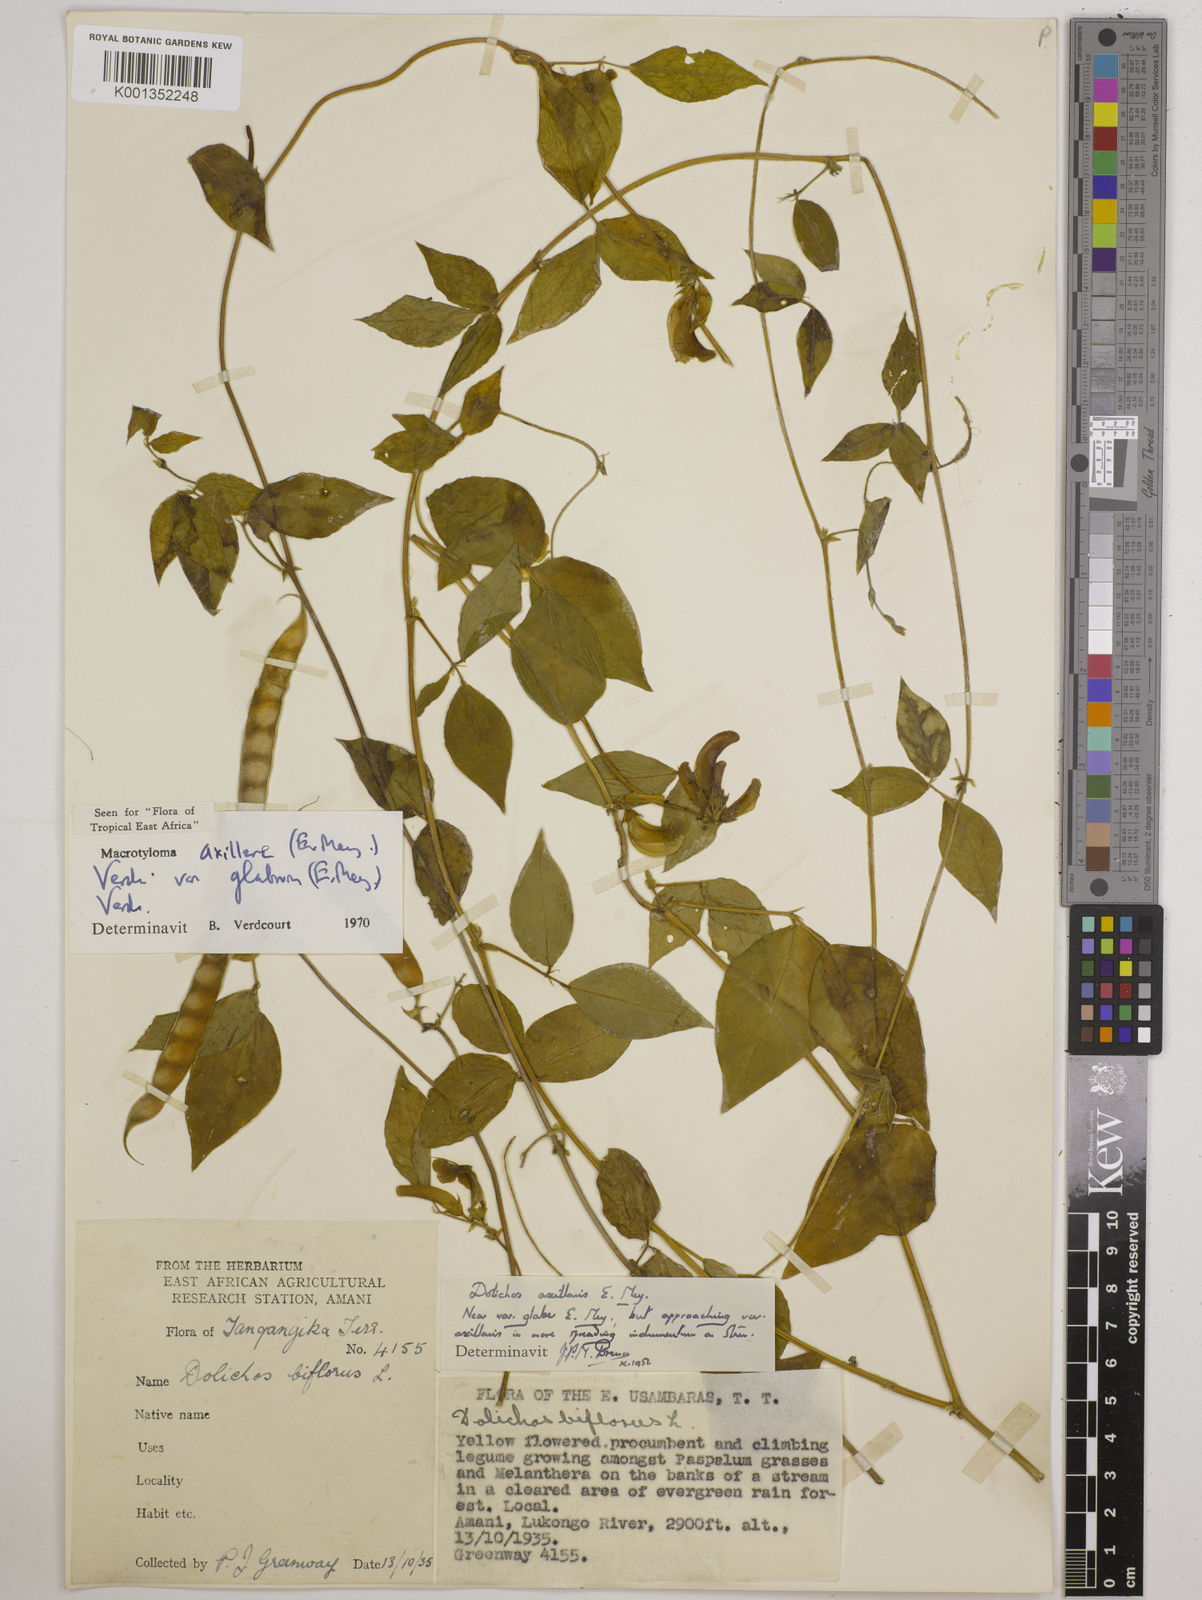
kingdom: Plantae
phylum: Tracheophyta
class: Magnoliopsida
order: Fabales
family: Fabaceae
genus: Macrotyloma
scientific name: Macrotyloma
